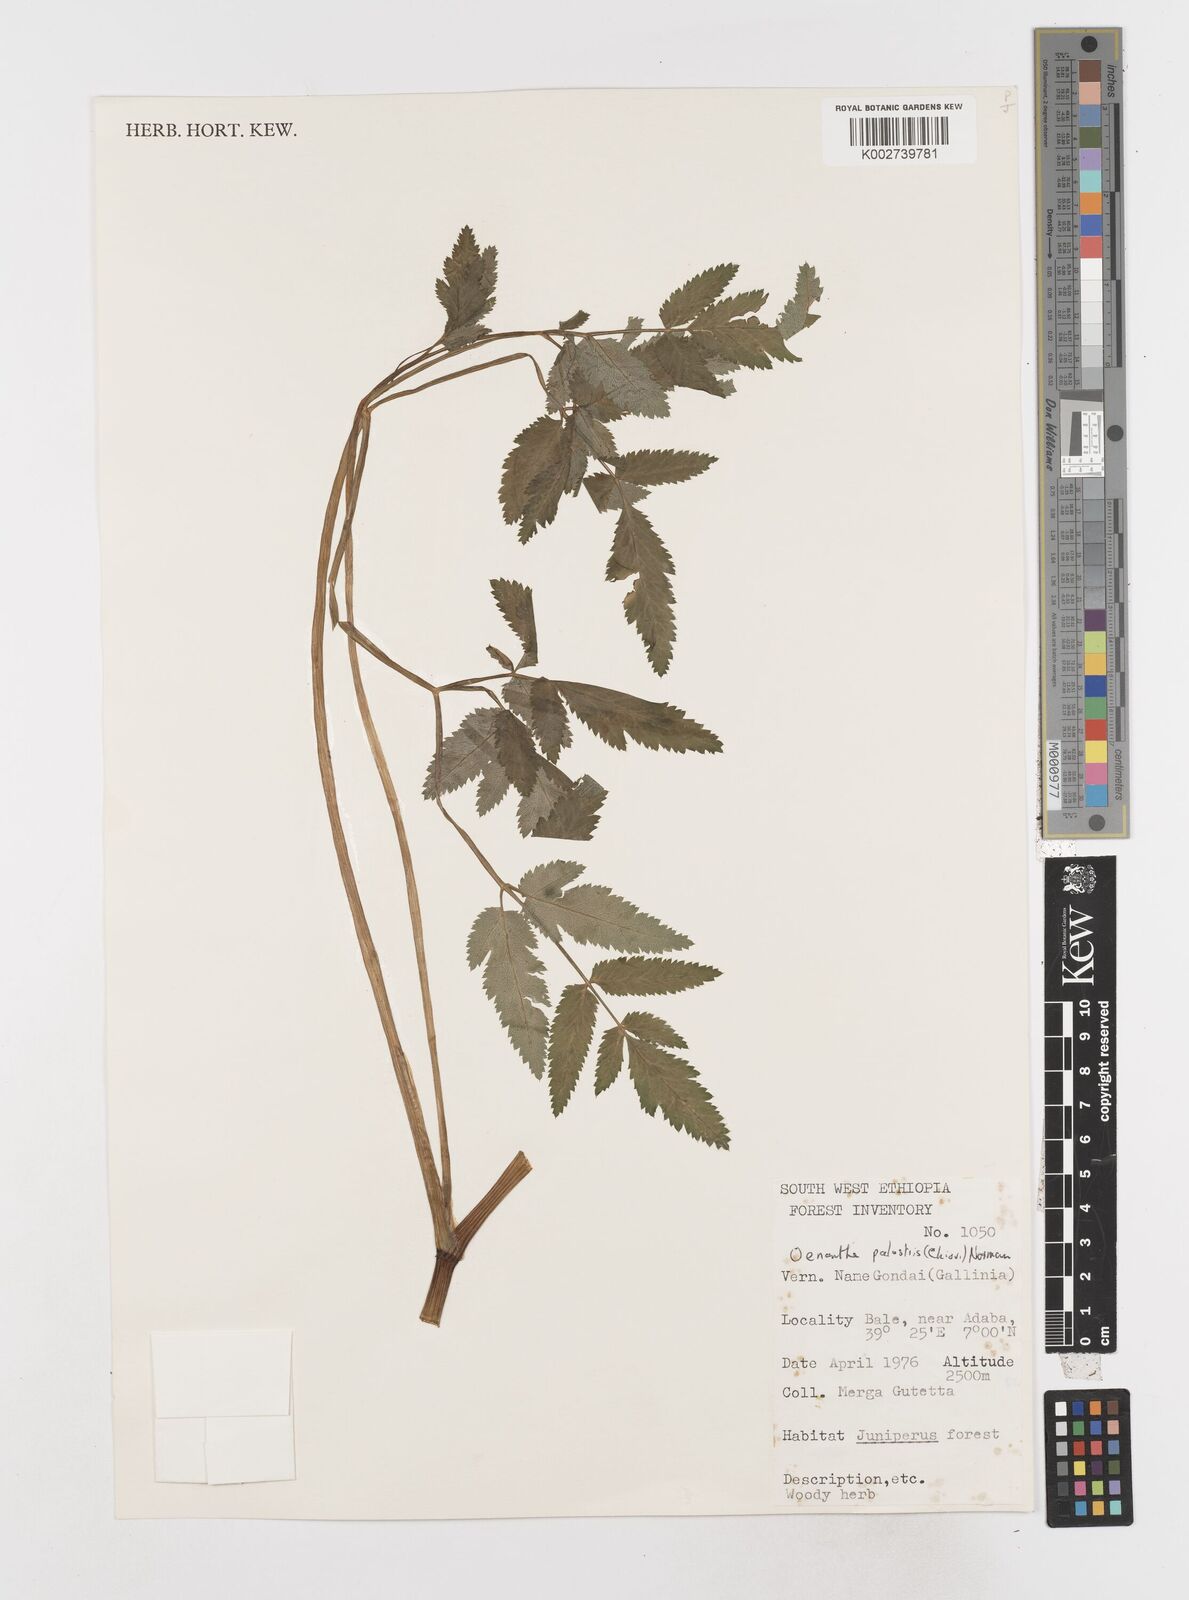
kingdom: Plantae
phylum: Tracheophyta
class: Magnoliopsida
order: Apiales
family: Apiaceae
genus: Oenanthe
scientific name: Oenanthe
